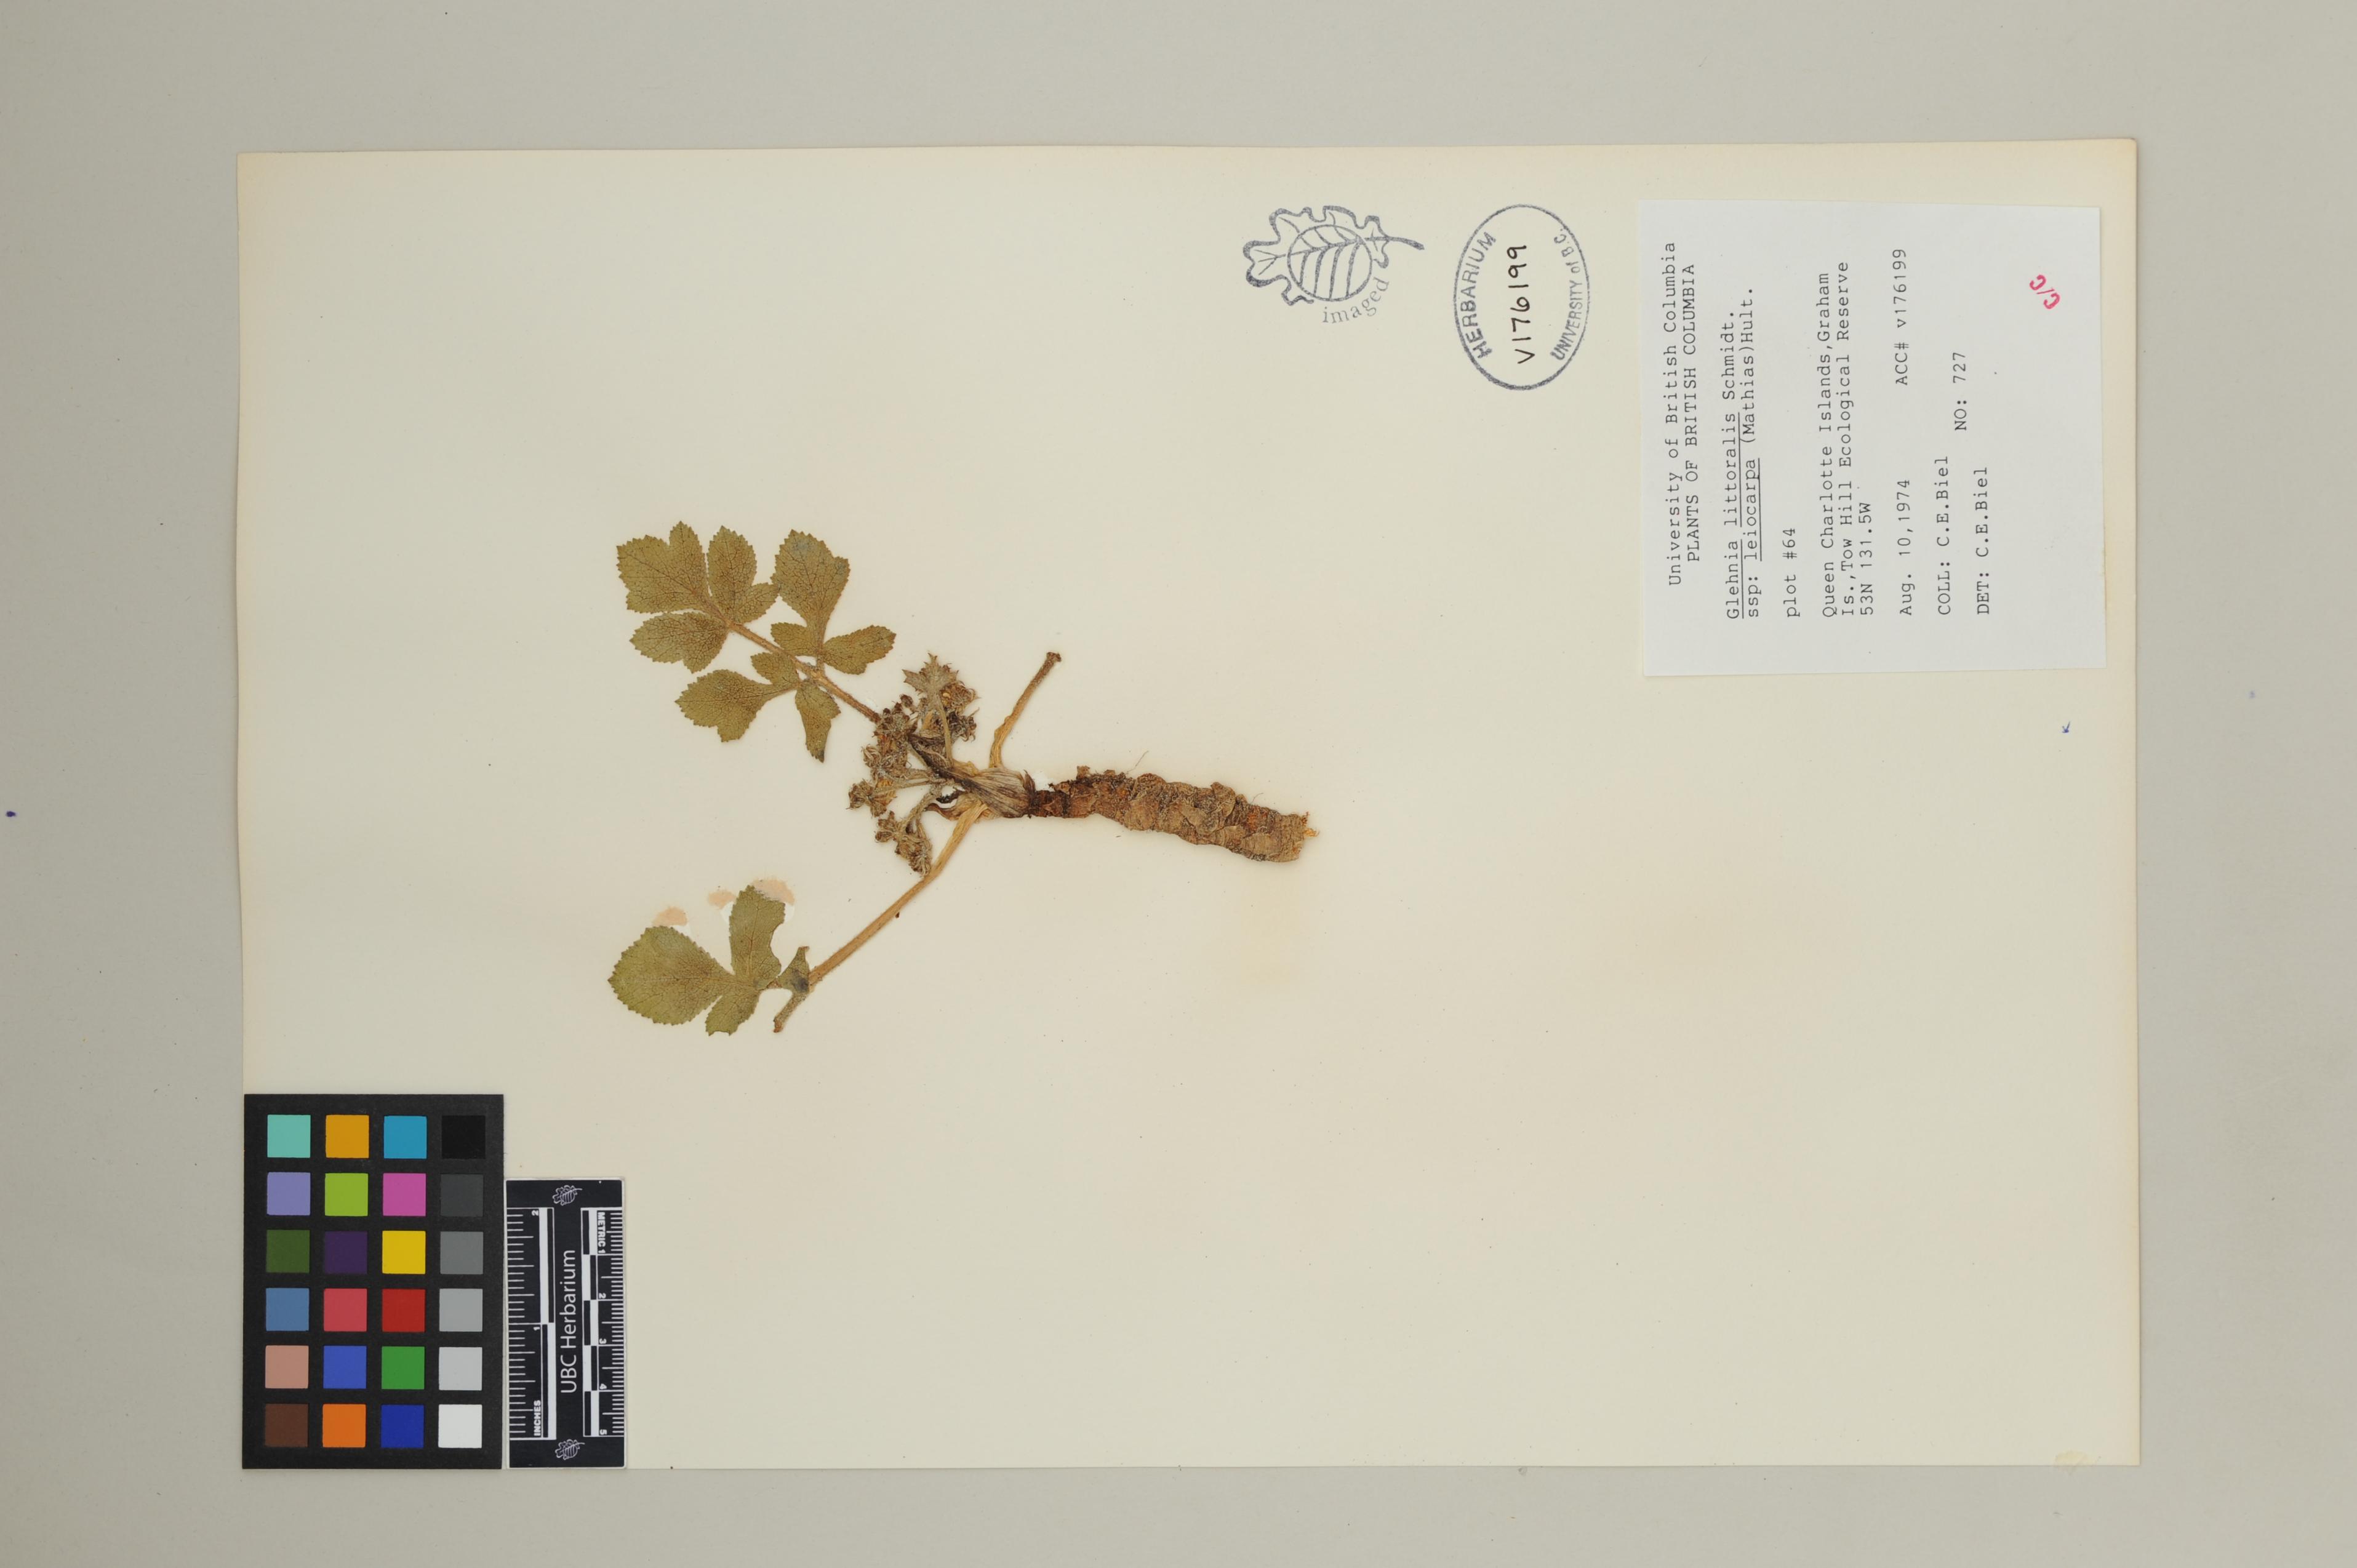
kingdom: Plantae
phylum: Tracheophyta
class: Magnoliopsida
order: Apiales
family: Apiaceae
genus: Angelica
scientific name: Angelica leiocarpa
